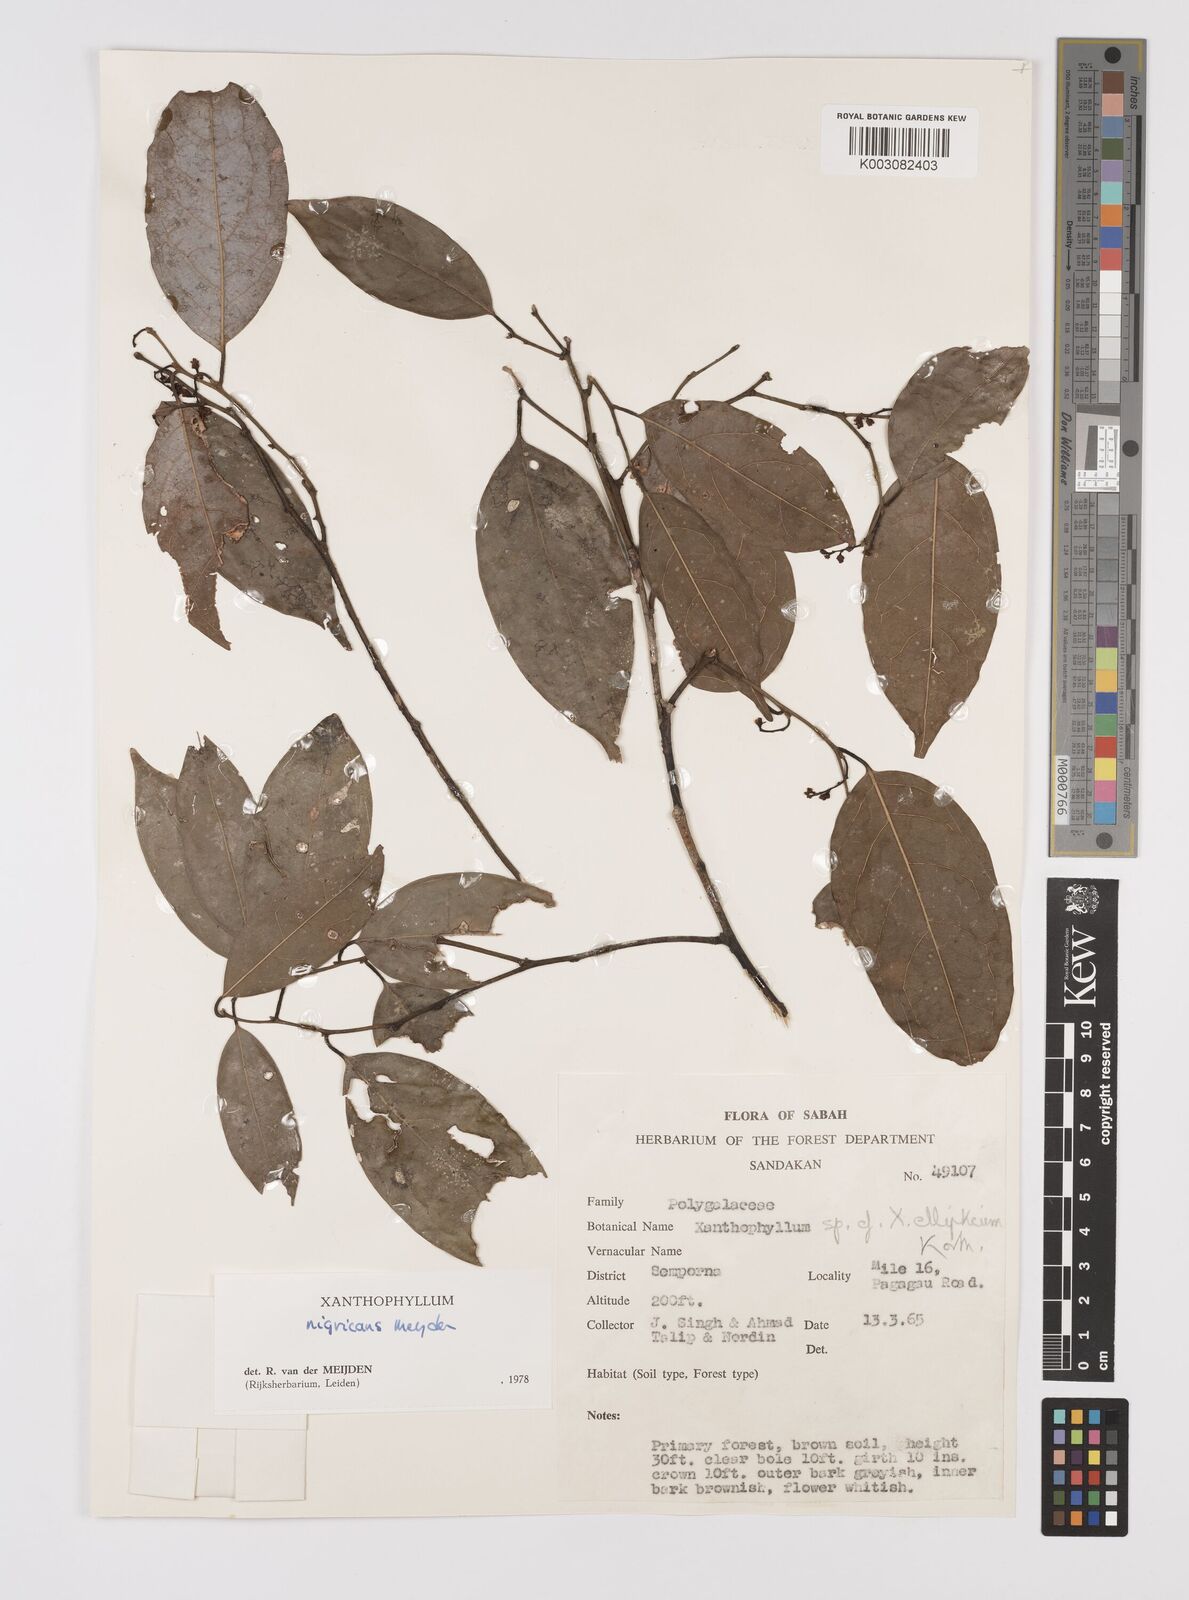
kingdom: Plantae
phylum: Tracheophyta
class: Magnoliopsida
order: Fabales
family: Polygalaceae
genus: Xanthophyllum
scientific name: Xanthophyllum nigricans
